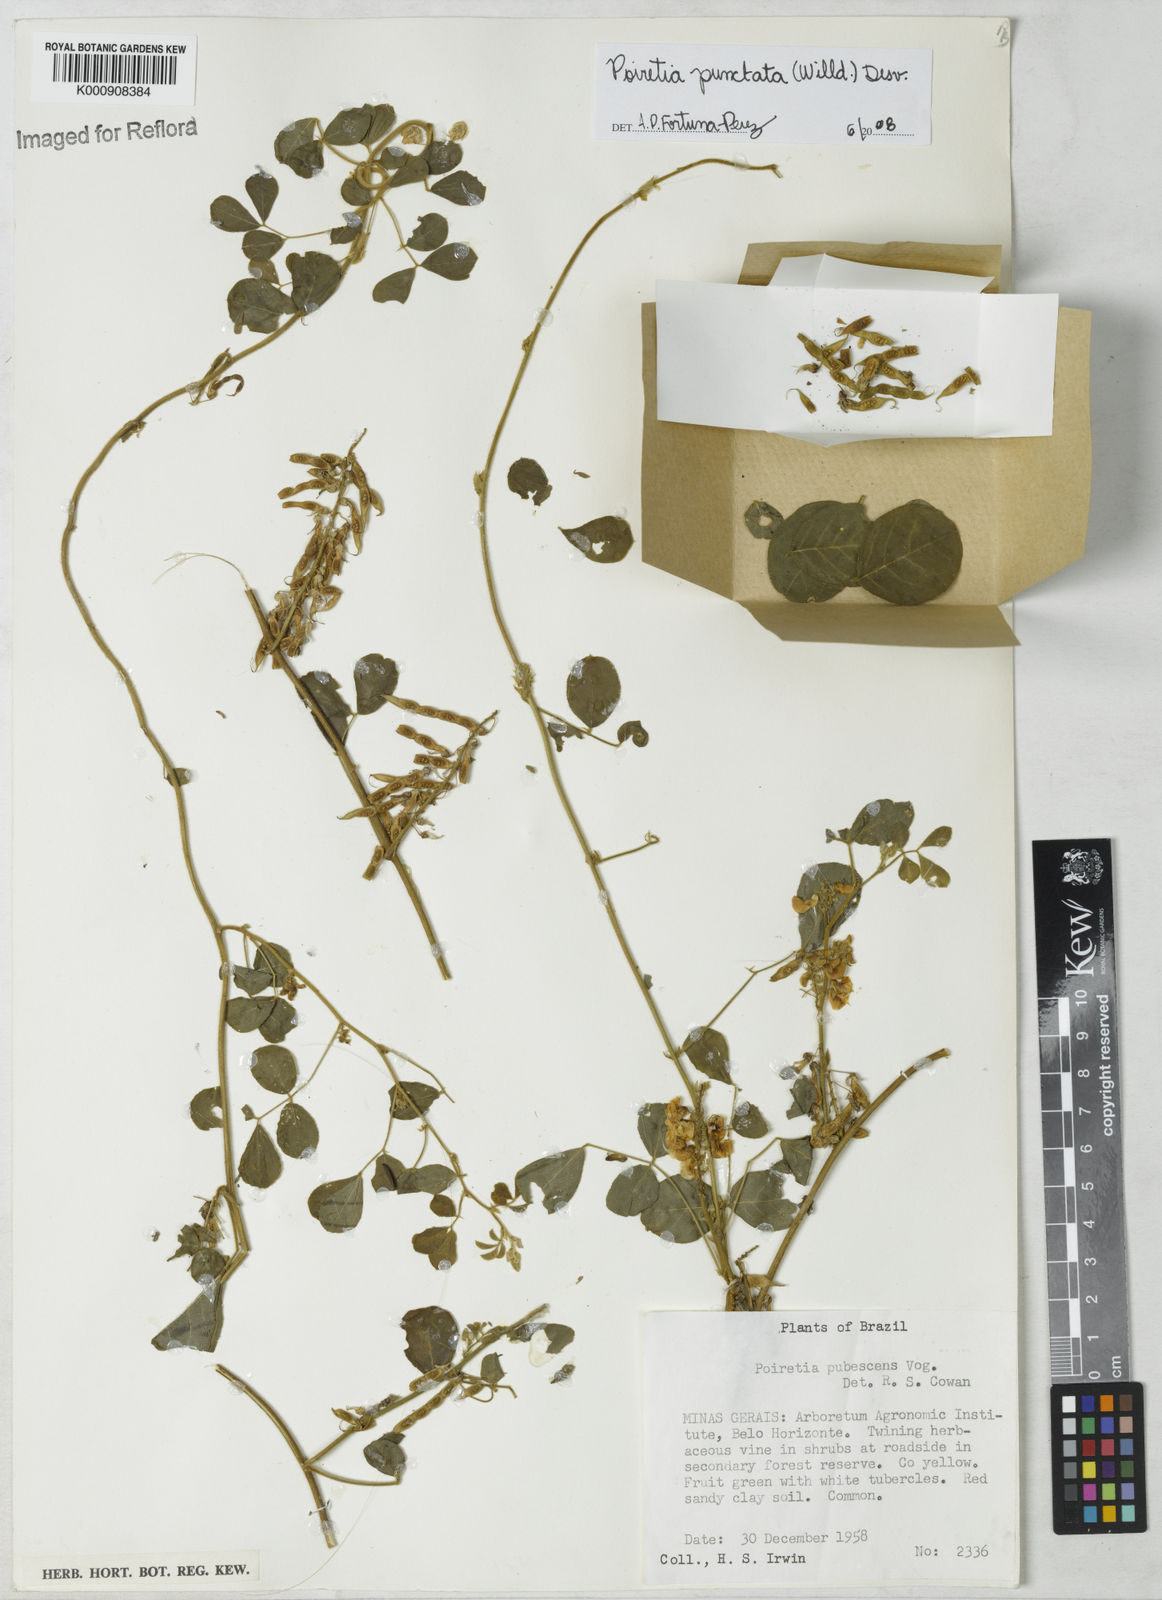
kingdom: Plantae
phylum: Tracheophyta
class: Magnoliopsida
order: Fabales
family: Fabaceae
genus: Poiretia
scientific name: Poiretia punctata
